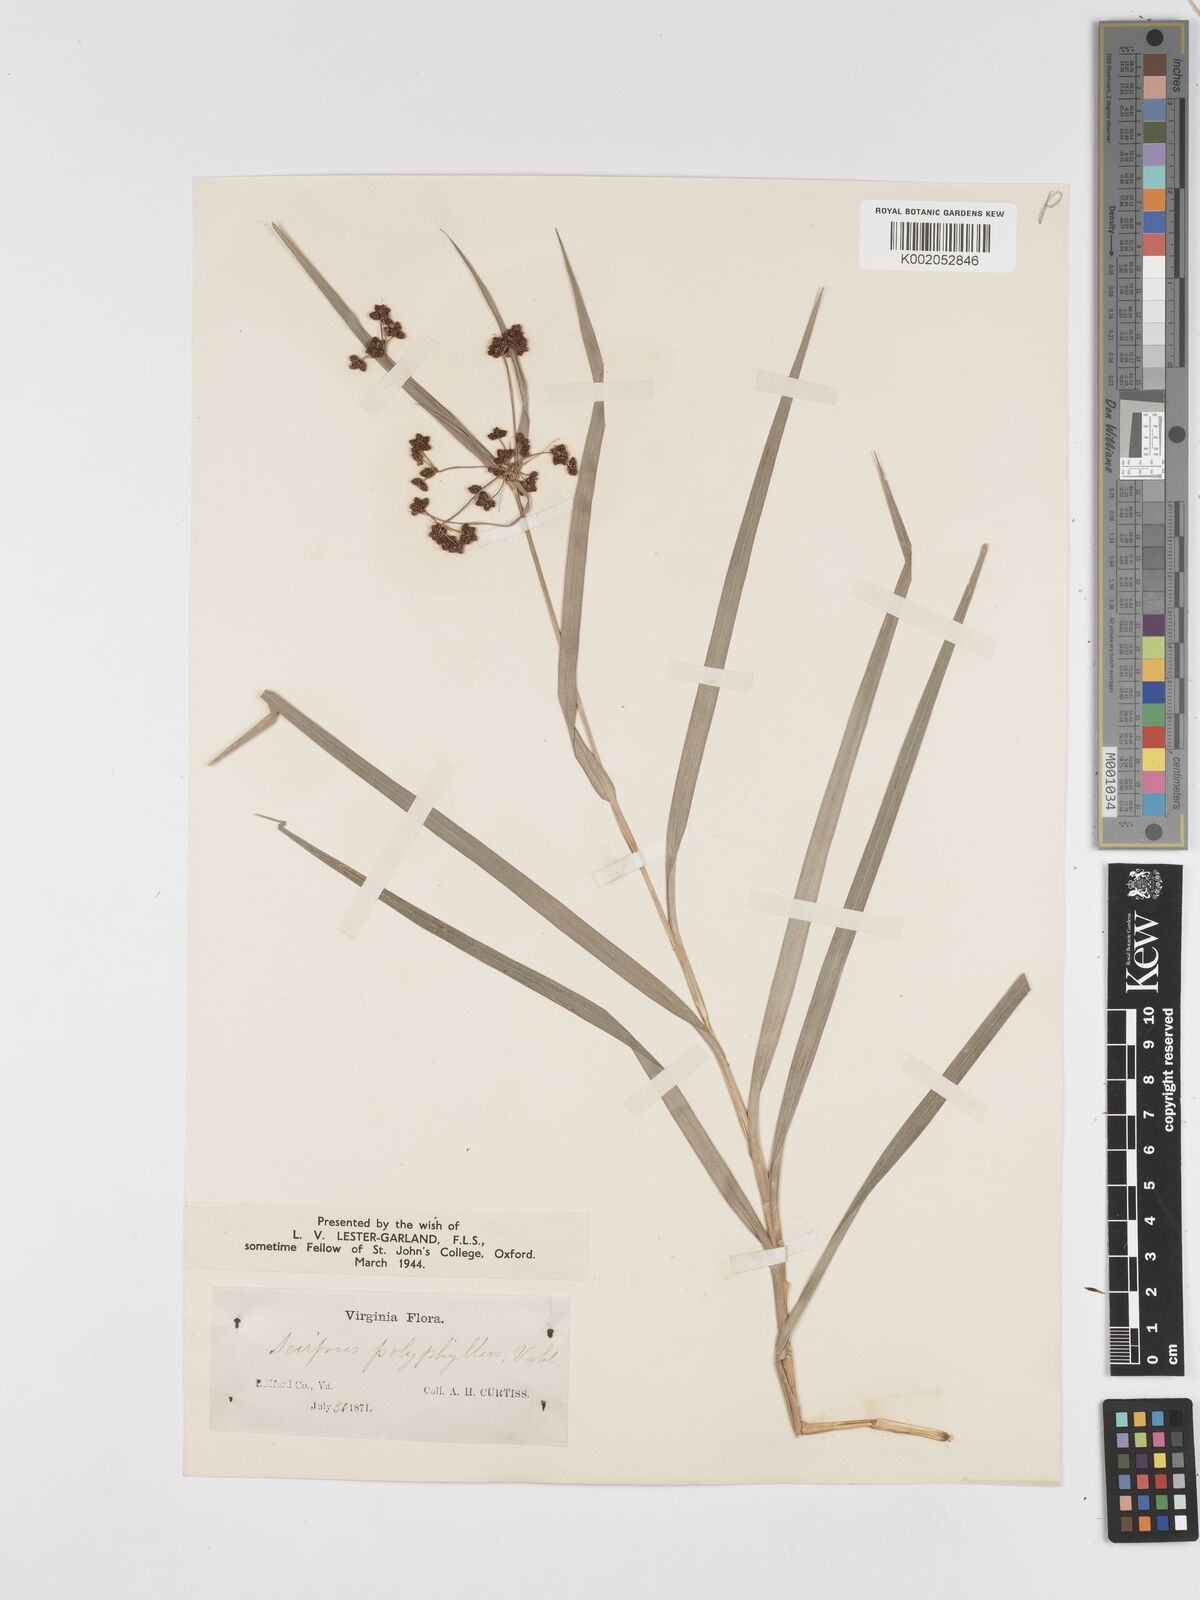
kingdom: Plantae
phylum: Tracheophyta
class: Liliopsida
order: Poales
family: Cyperaceae
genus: Scirpus
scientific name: Scirpus polyphyllus
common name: Leafy bulrush
